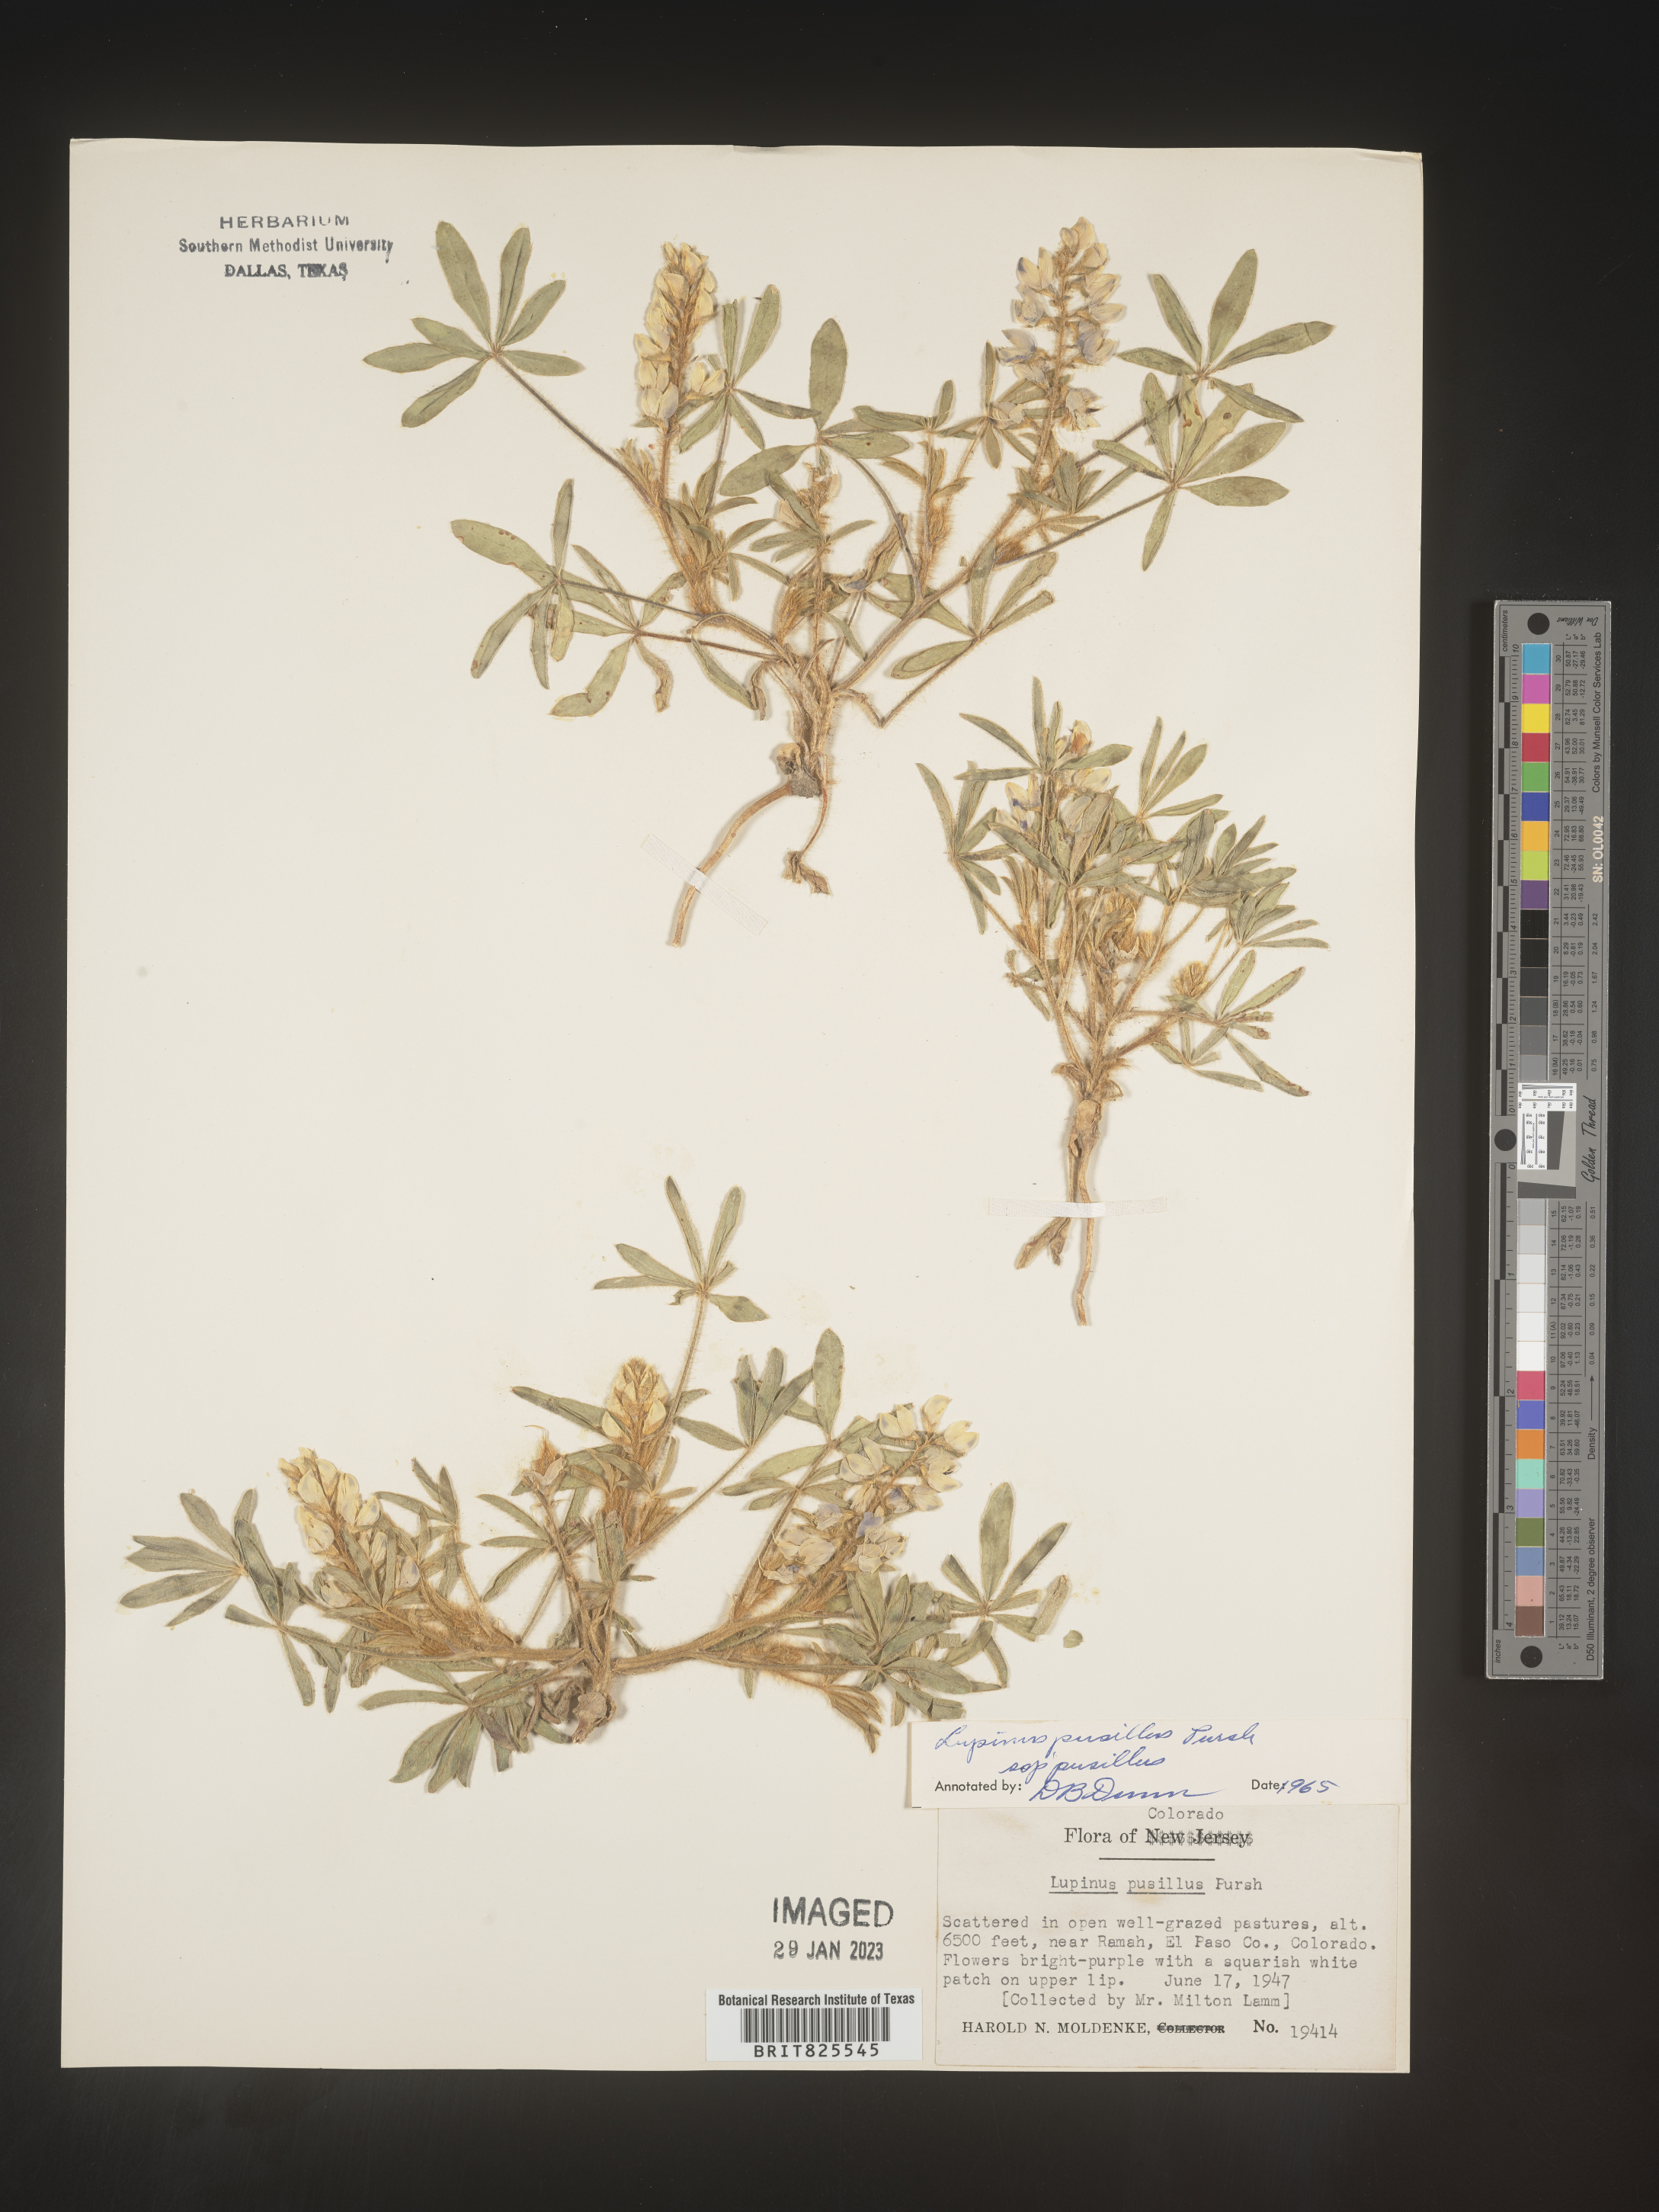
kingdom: Plantae
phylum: Tracheophyta
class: Magnoliopsida
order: Fabales
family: Fabaceae
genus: Lupinus
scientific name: Lupinus
